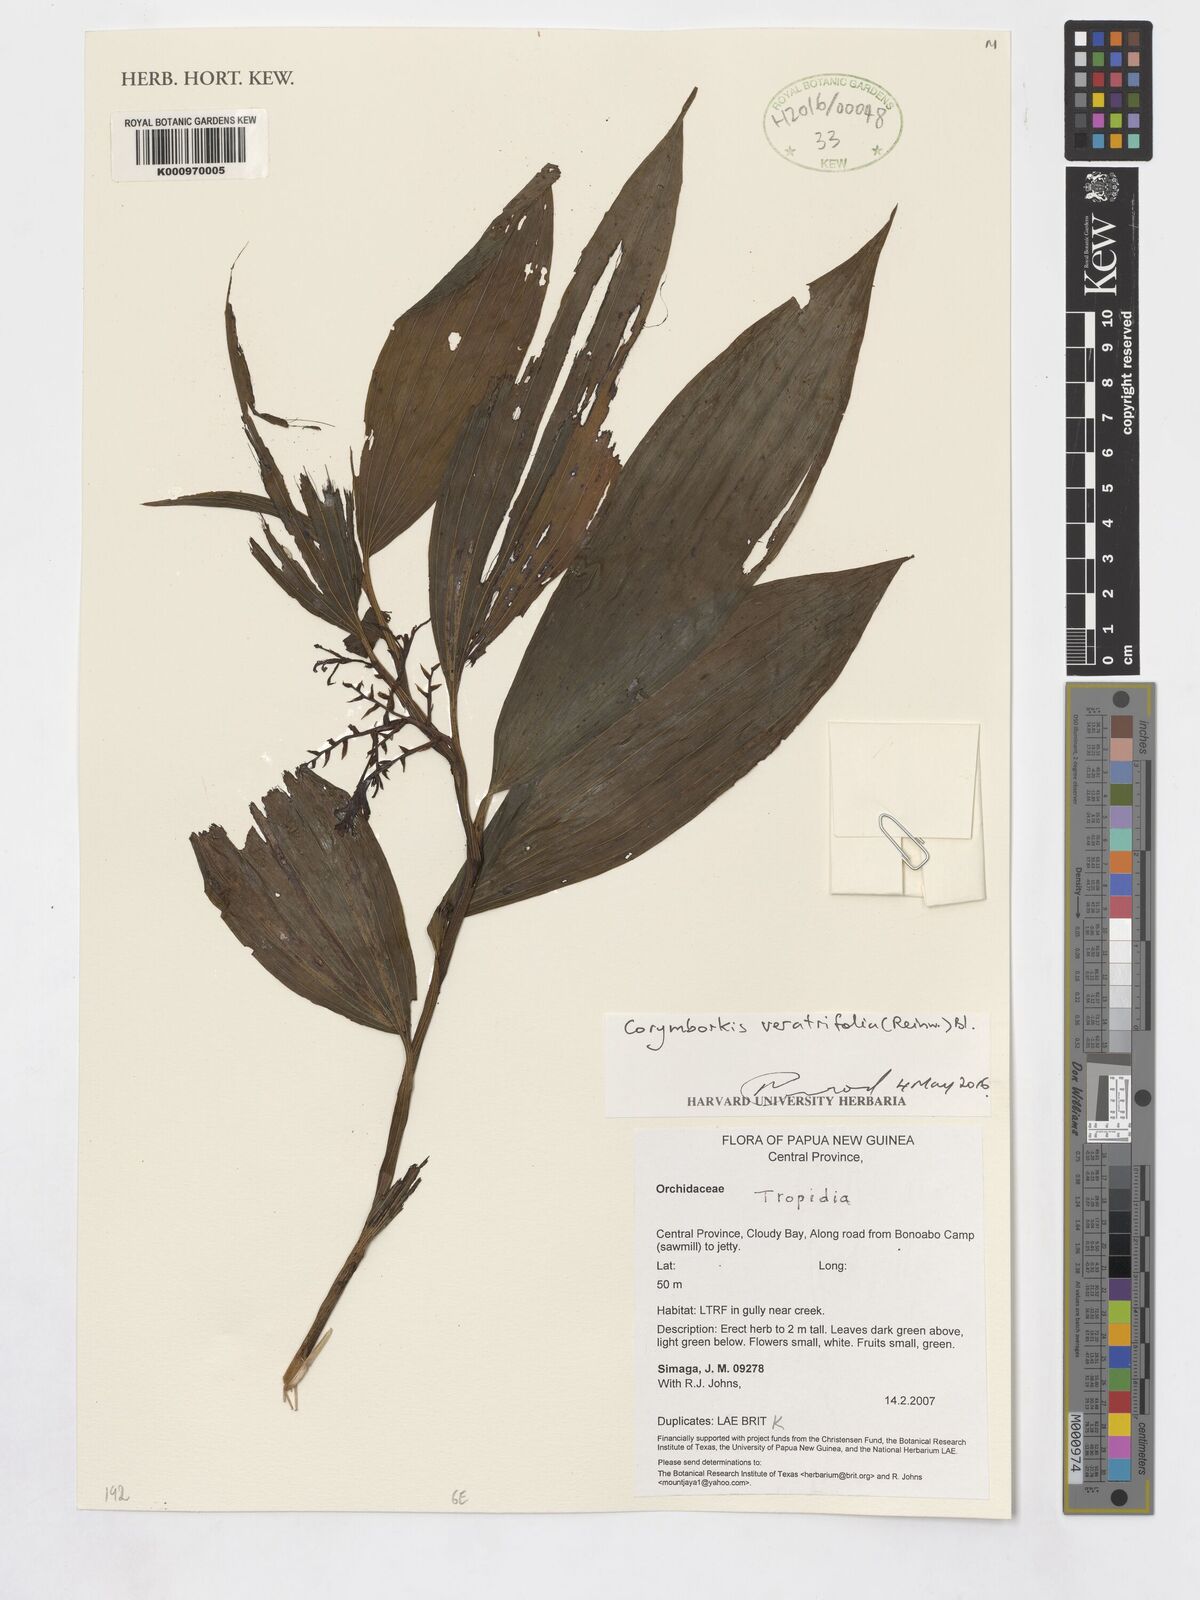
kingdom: Plantae
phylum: Tracheophyta
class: Liliopsida
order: Asparagales
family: Orchidaceae
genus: Tropidia
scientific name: Tropidia
